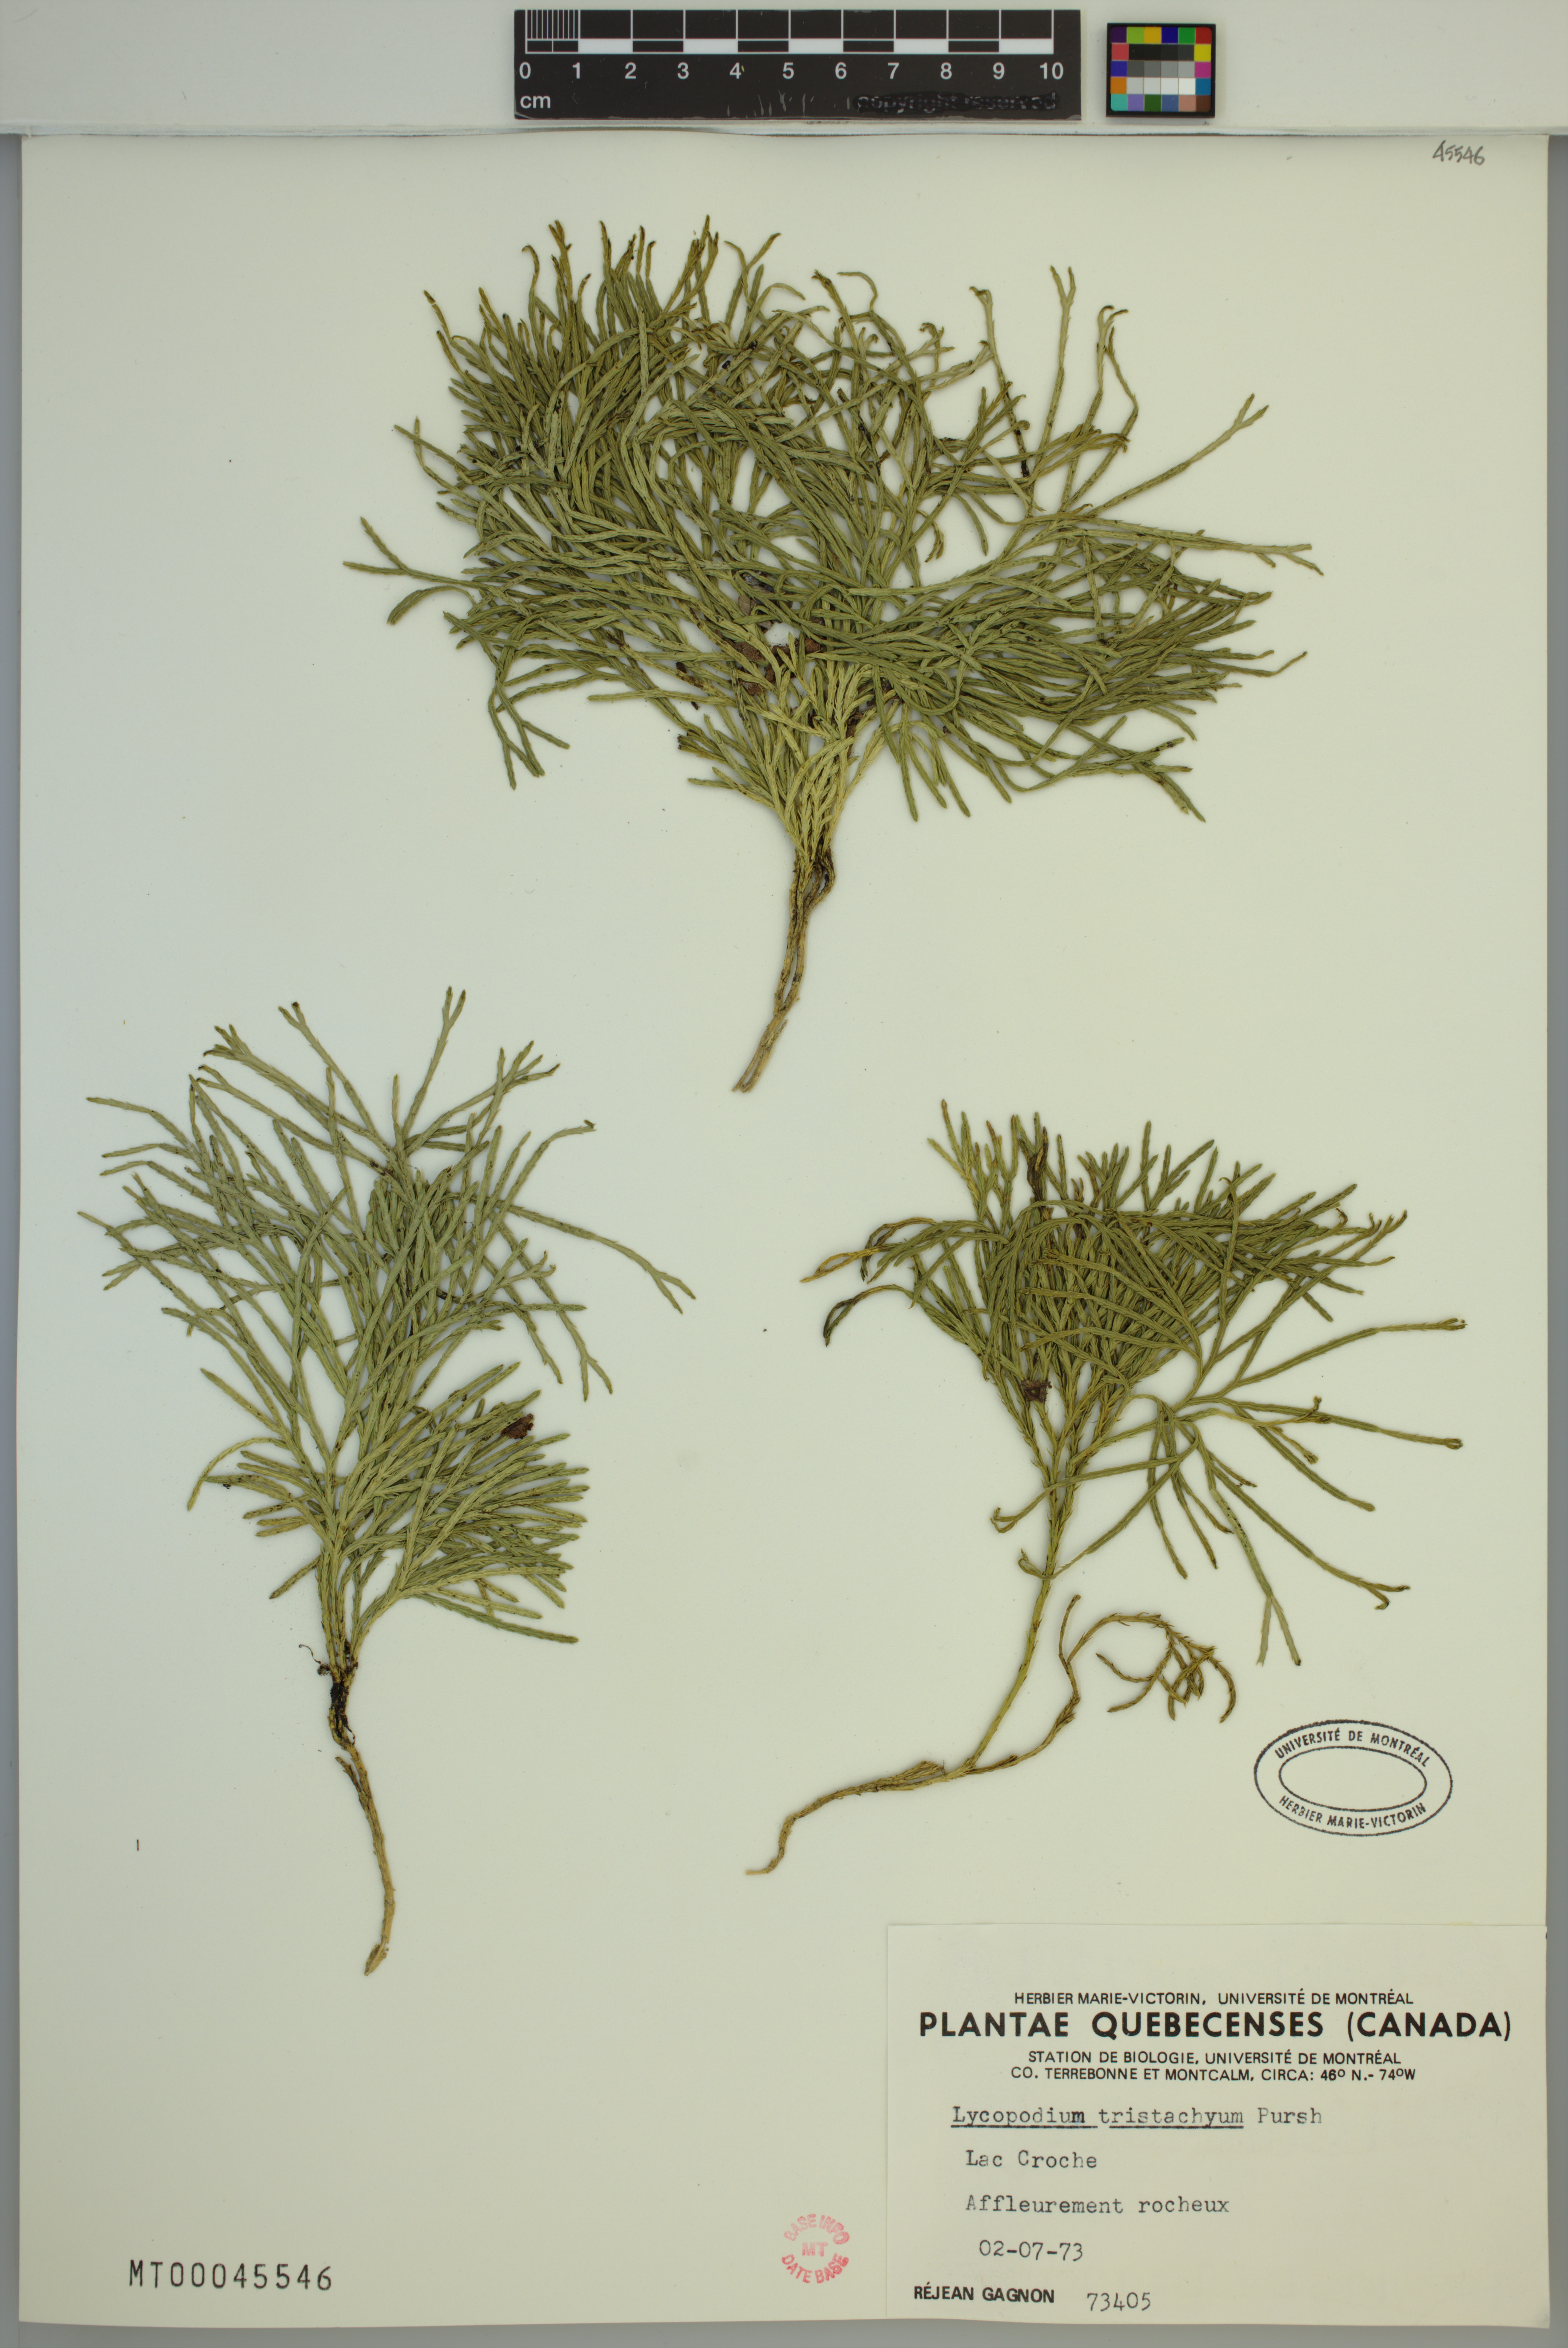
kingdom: Plantae
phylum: Tracheophyta
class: Lycopodiopsida
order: Lycopodiales
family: Lycopodiaceae
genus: Diphasiastrum
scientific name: Diphasiastrum tristachyum
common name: Blue ground-cedar
